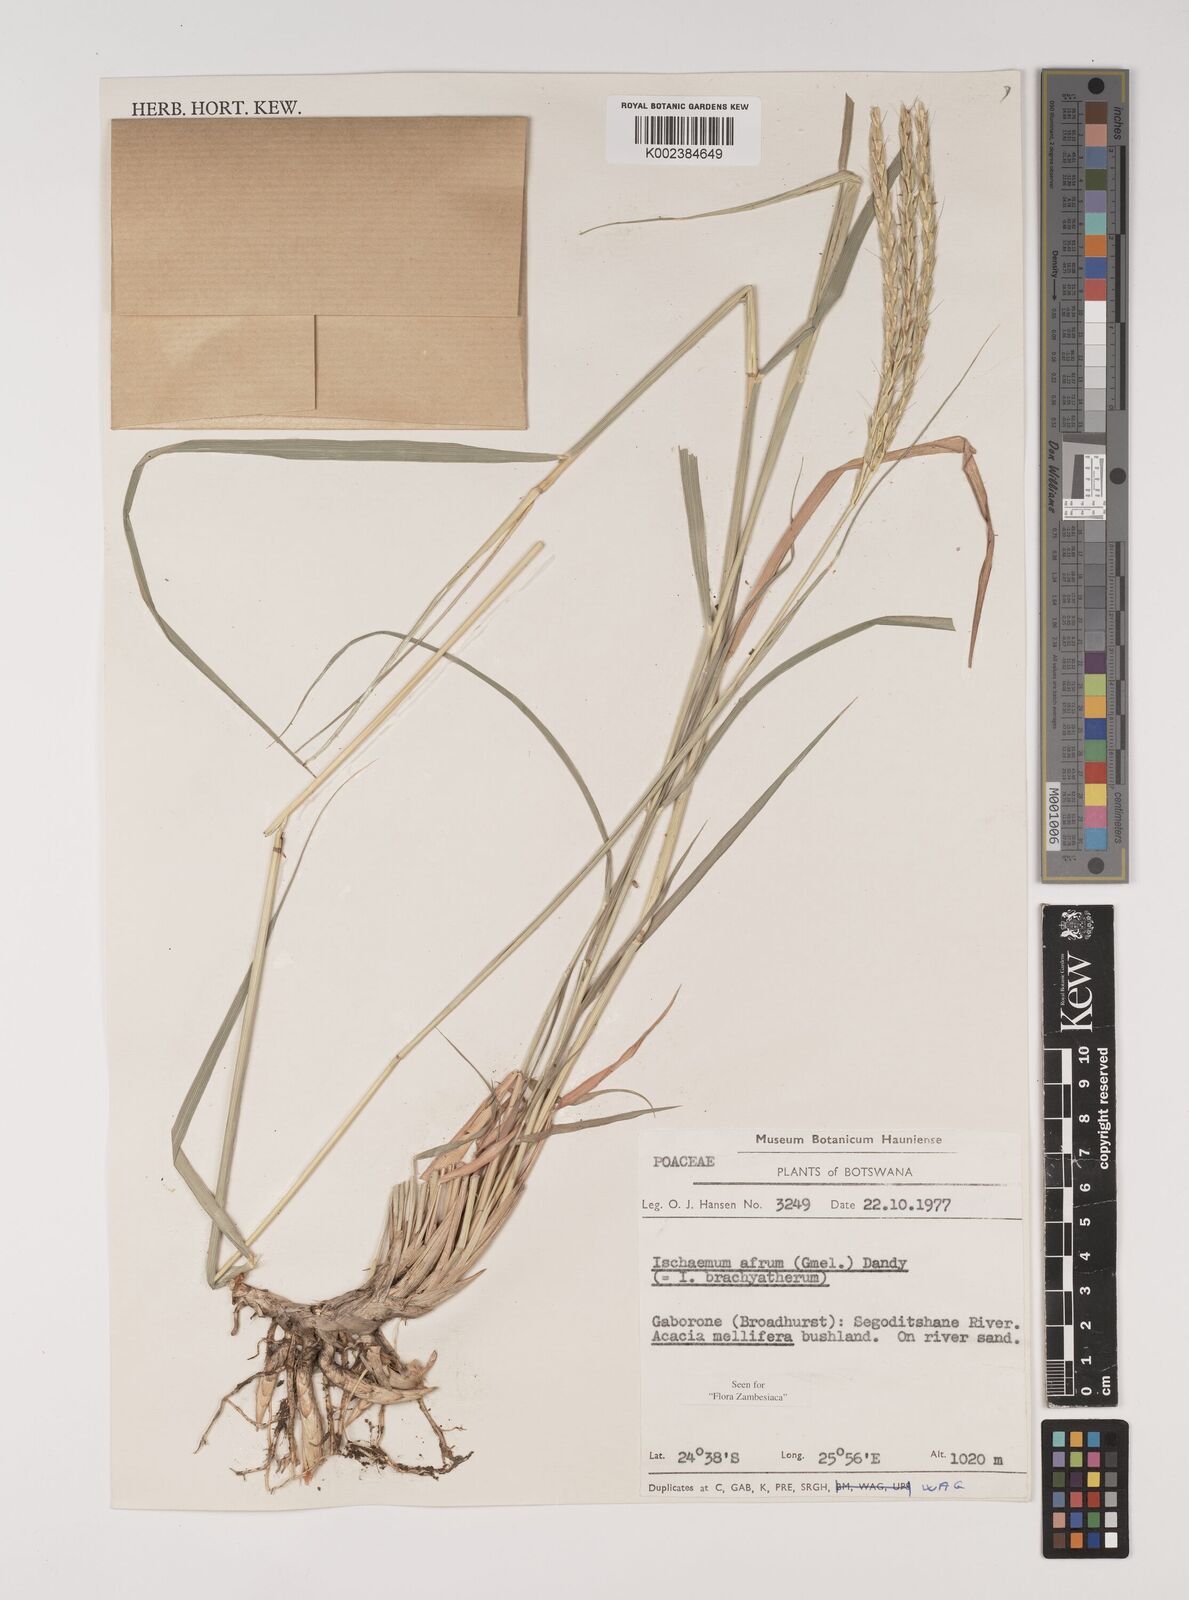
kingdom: Plantae
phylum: Tracheophyta
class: Liliopsida
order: Poales
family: Poaceae
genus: Ischaemum
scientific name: Ischaemum afrum
